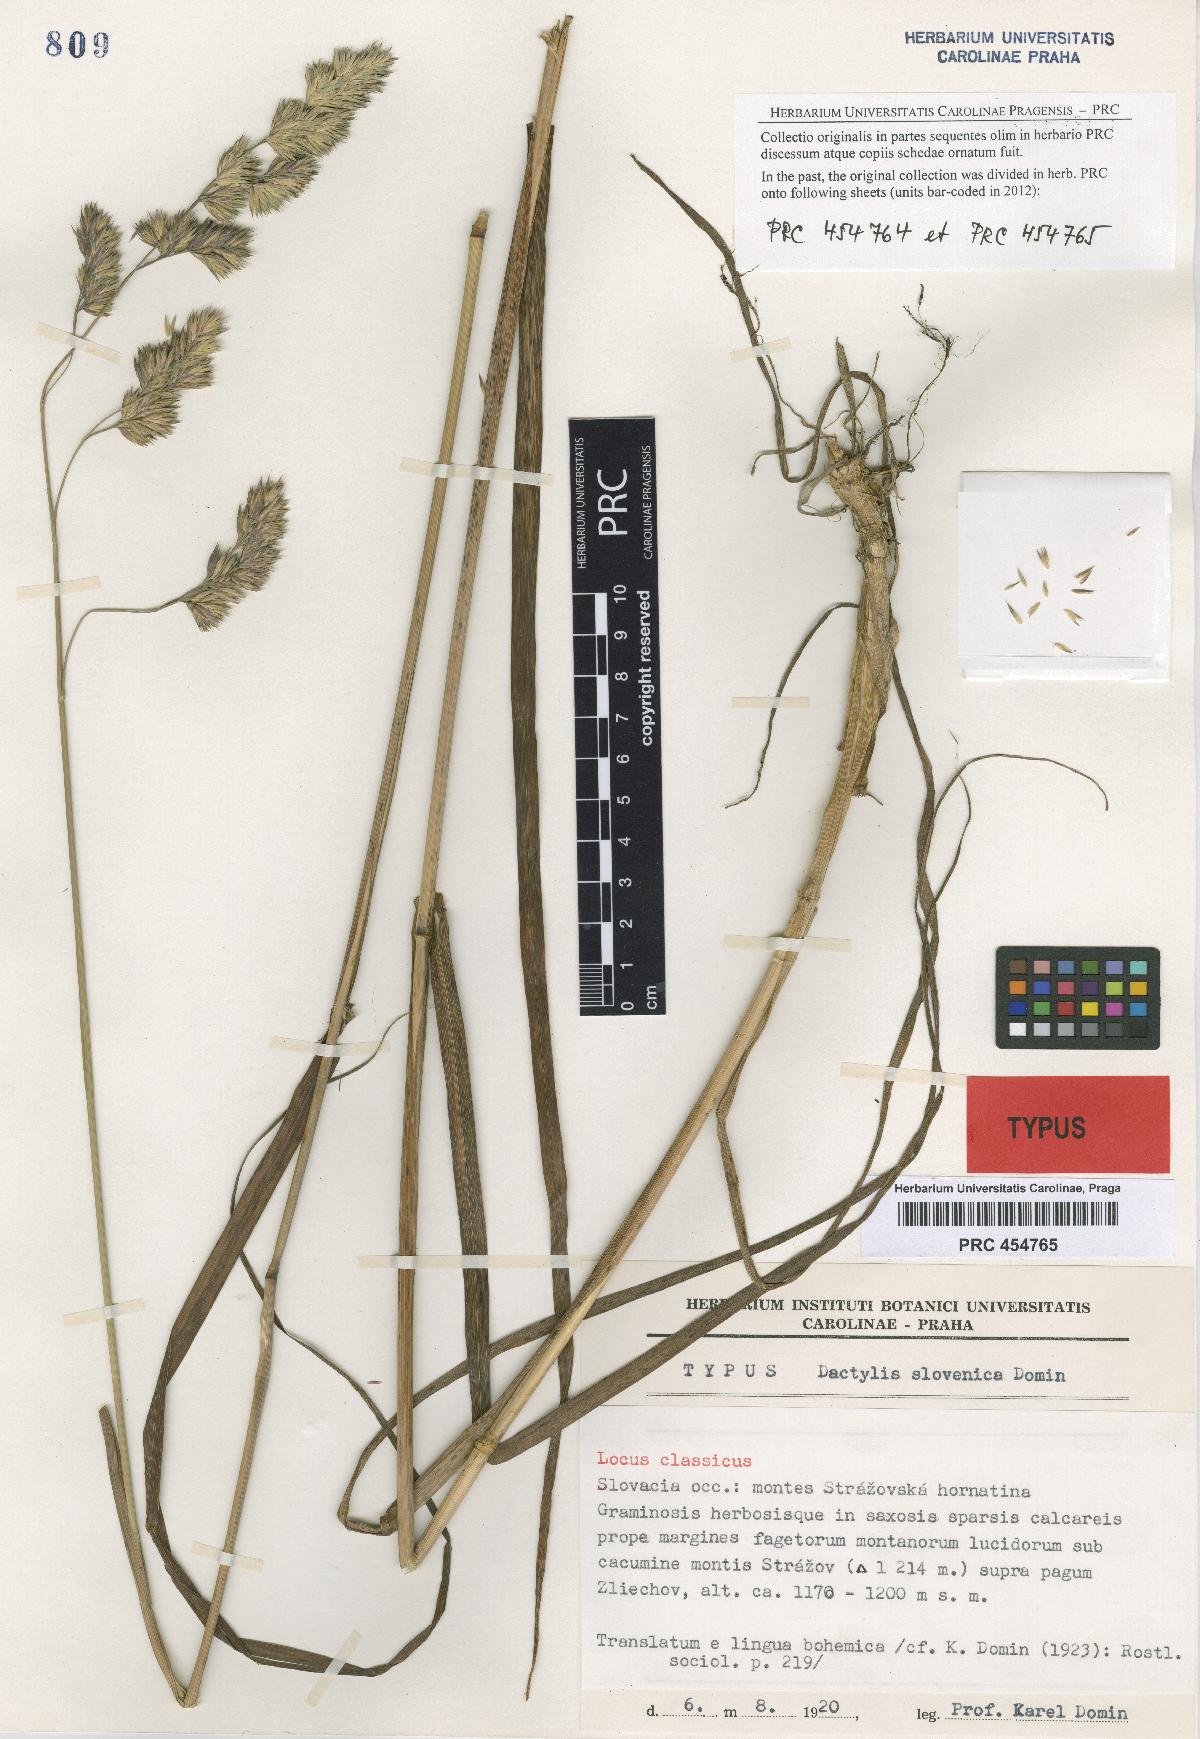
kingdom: Plantae
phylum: Tracheophyta
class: Liliopsida
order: Poales
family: Poaceae
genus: Dactylis
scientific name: Dactylis glomerata
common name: Orchardgrass
